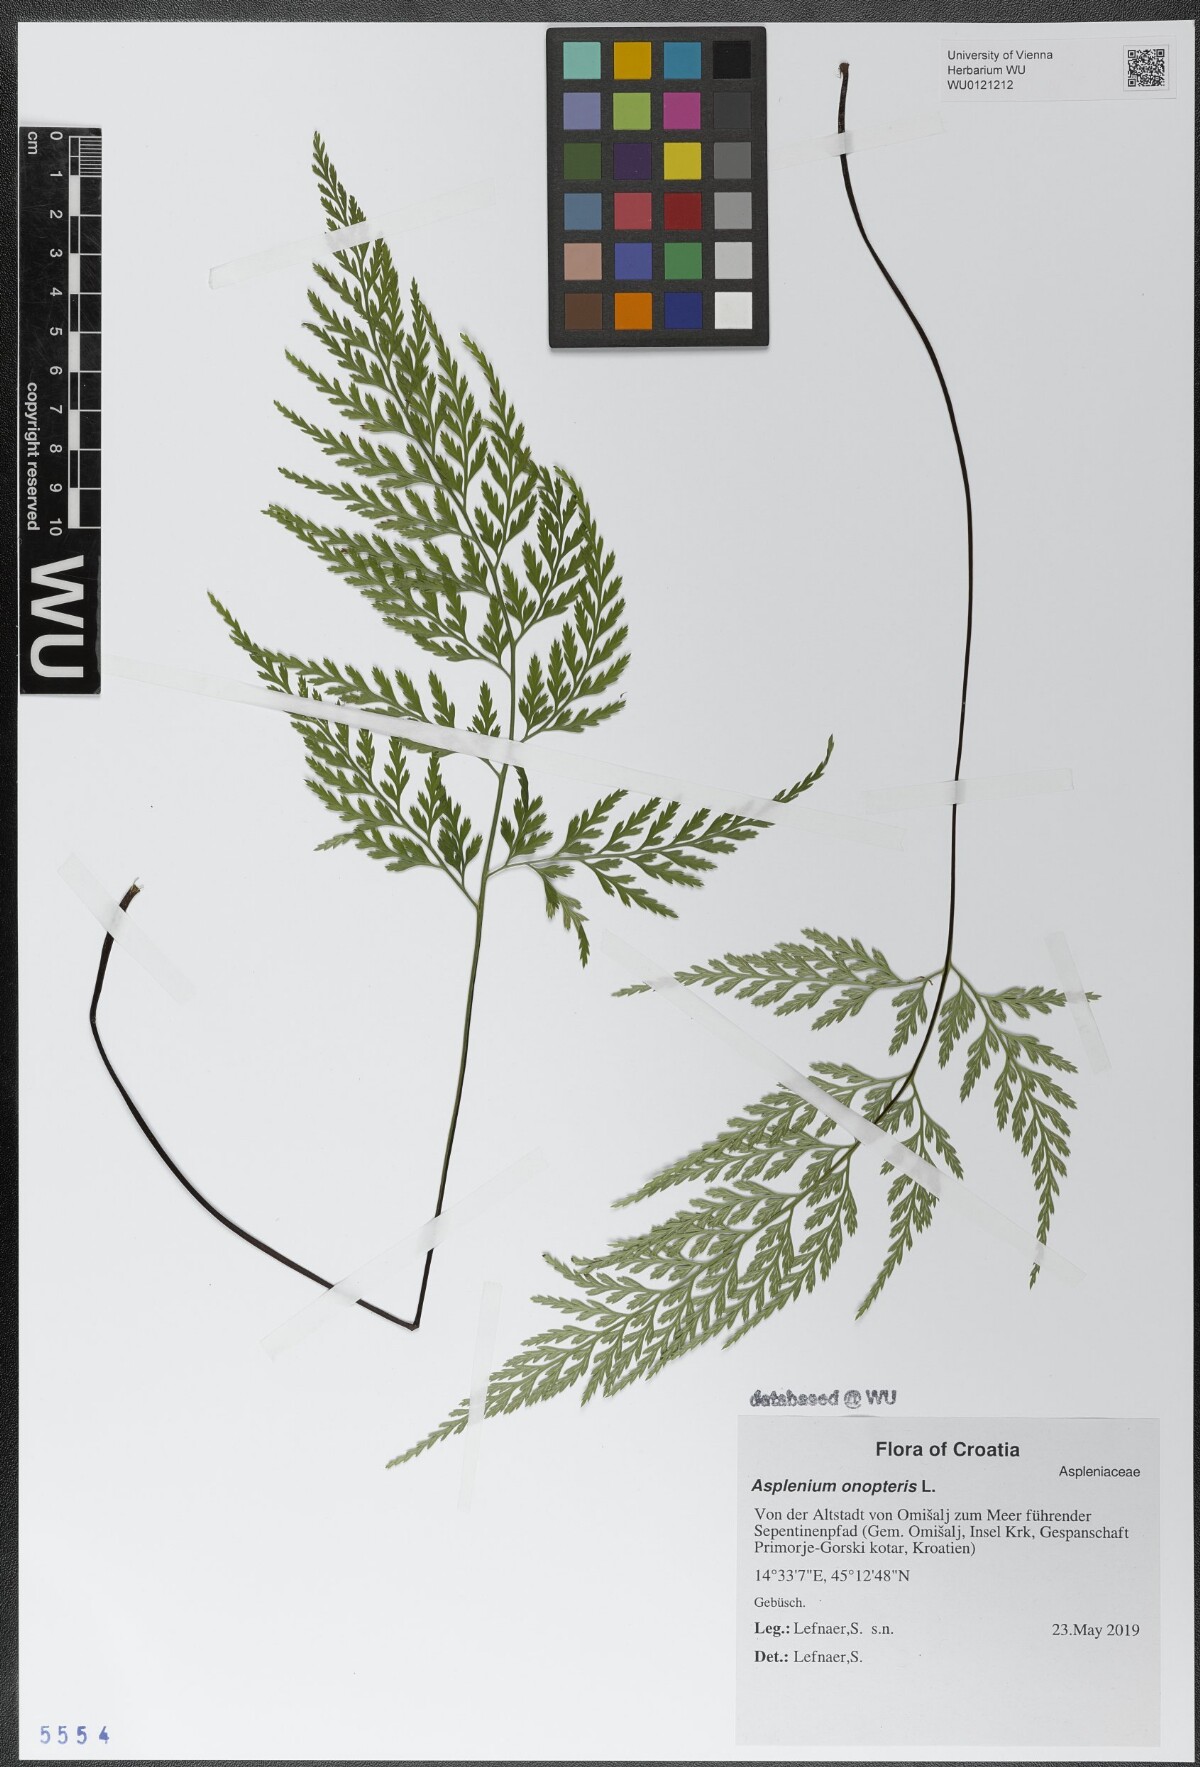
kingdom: Plantae
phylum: Tracheophyta
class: Polypodiopsida
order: Polypodiales
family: Aspleniaceae
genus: Asplenium
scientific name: Asplenium onopteris
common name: Irish spleenwort
